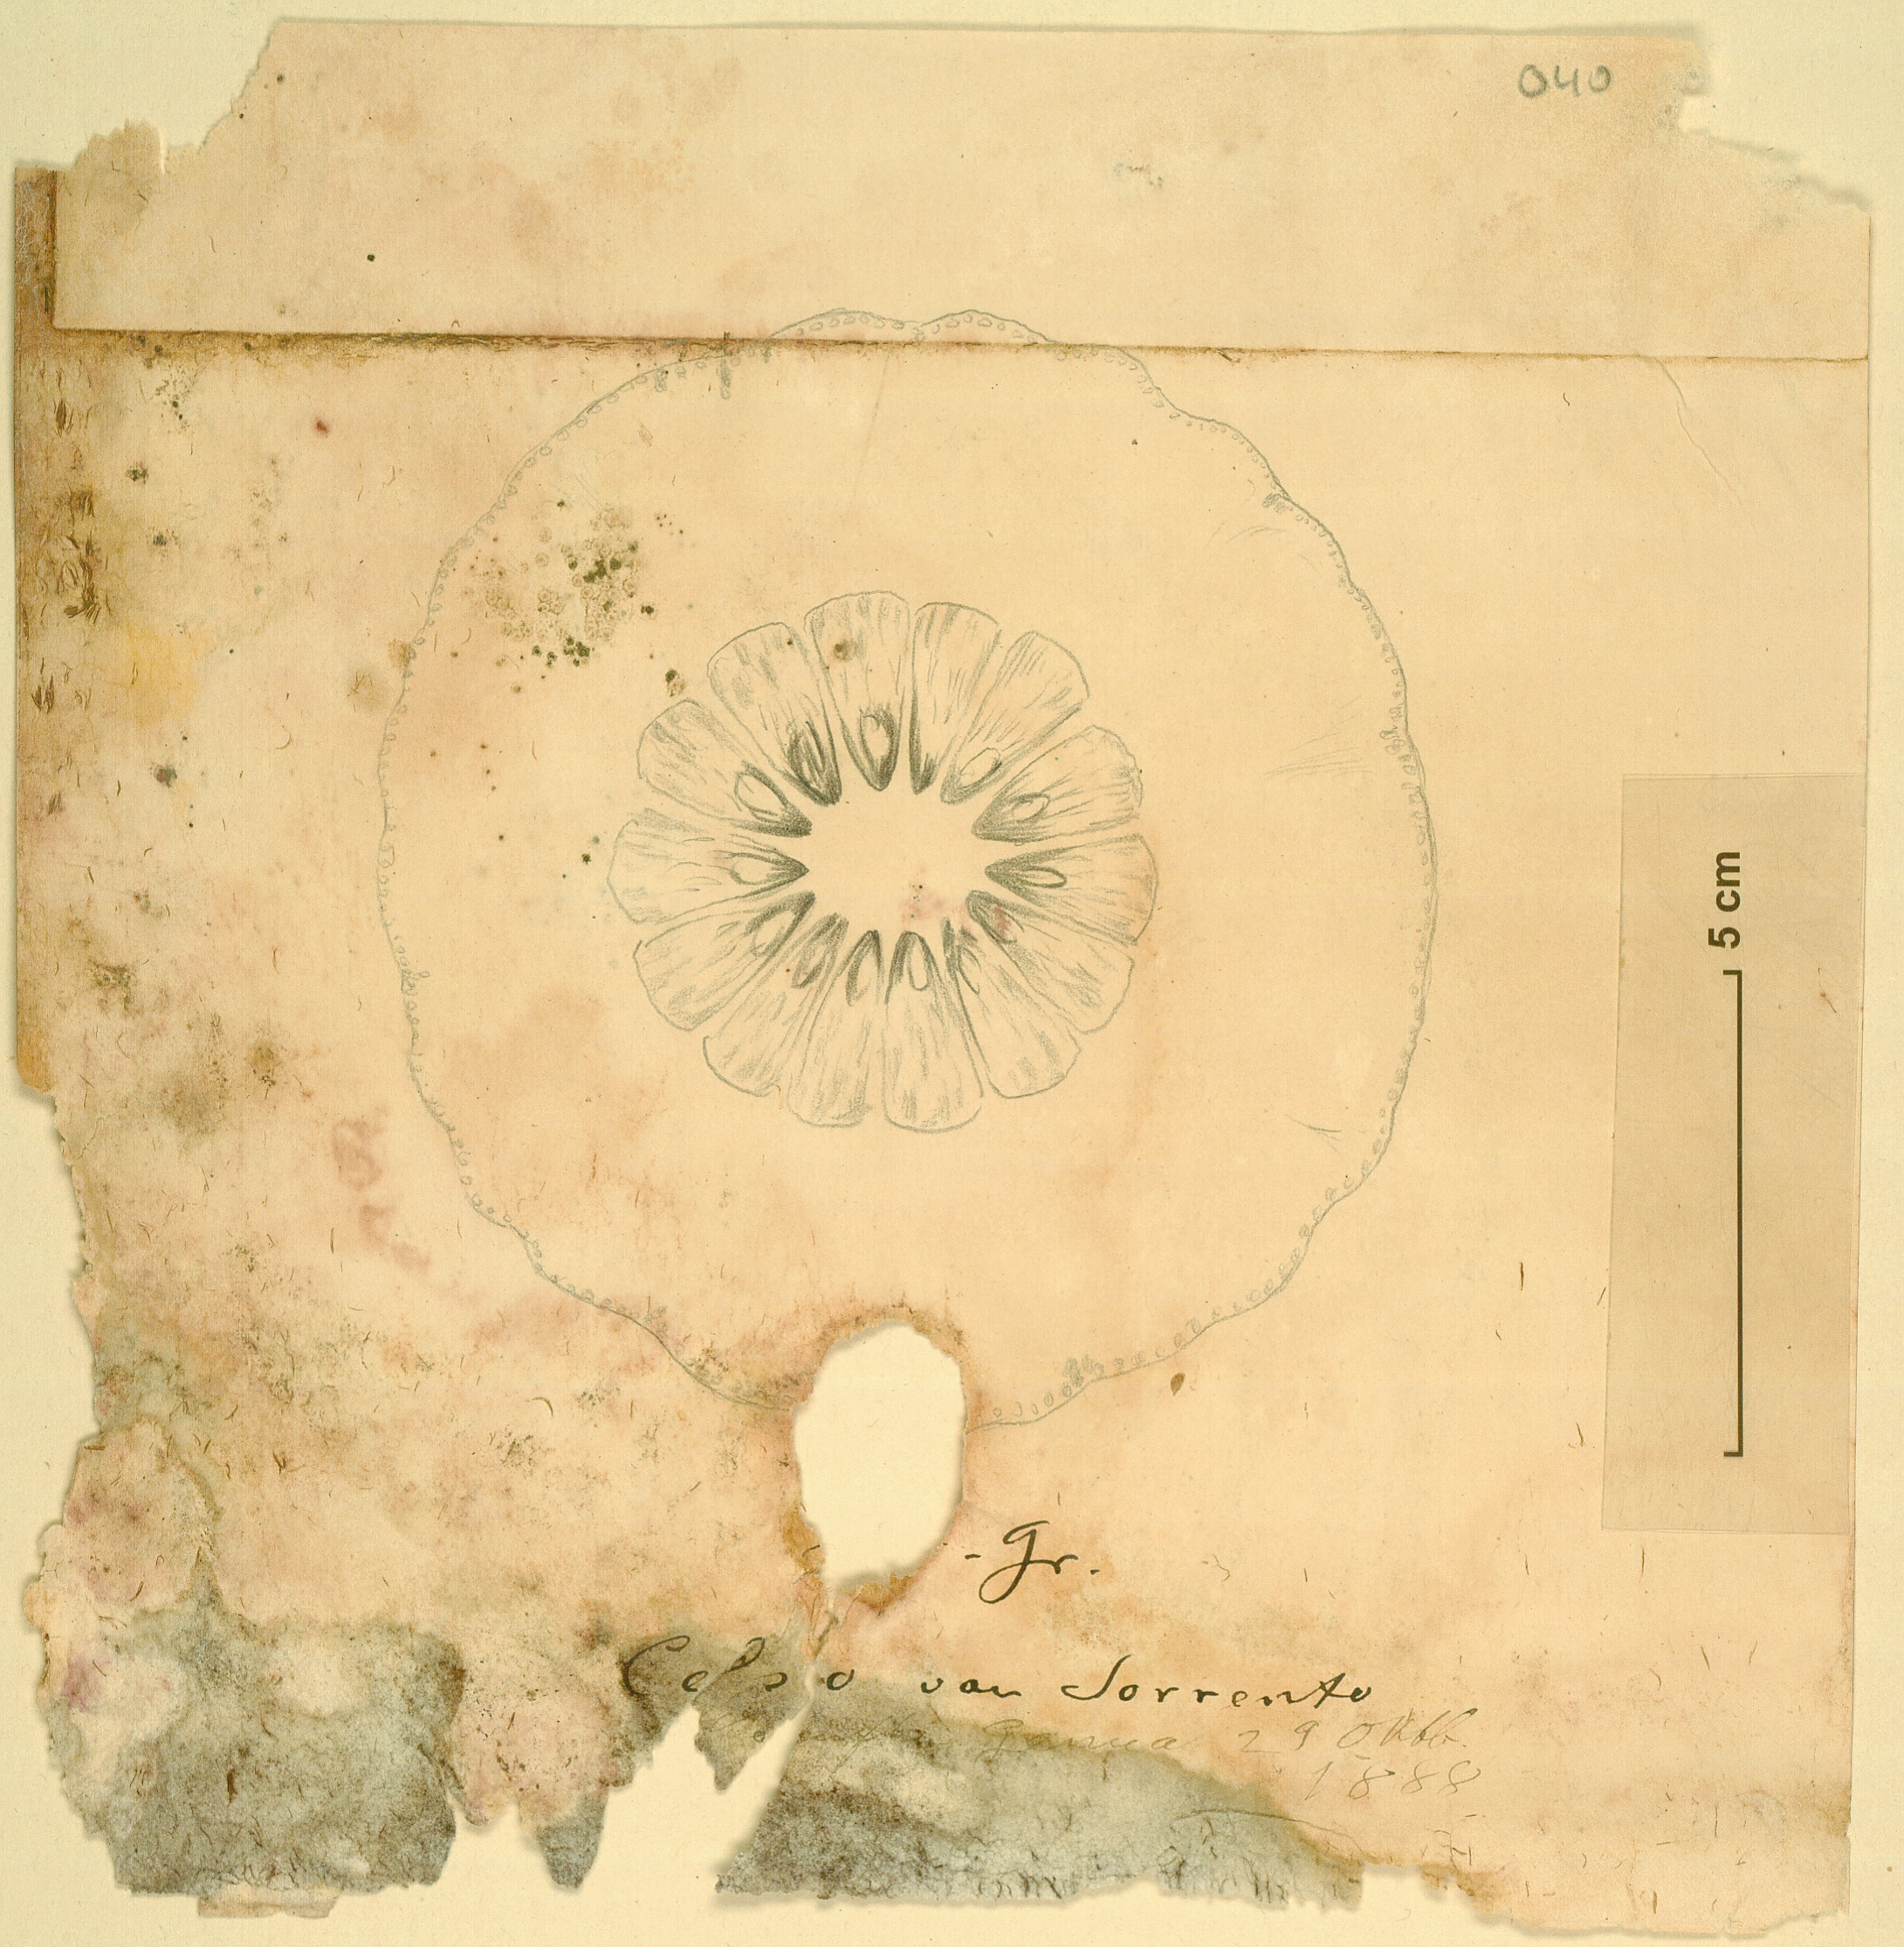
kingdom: Plantae
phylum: Tracheophyta
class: Magnoliopsida
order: Sapindales
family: Rutaceae
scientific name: Rutaceae
